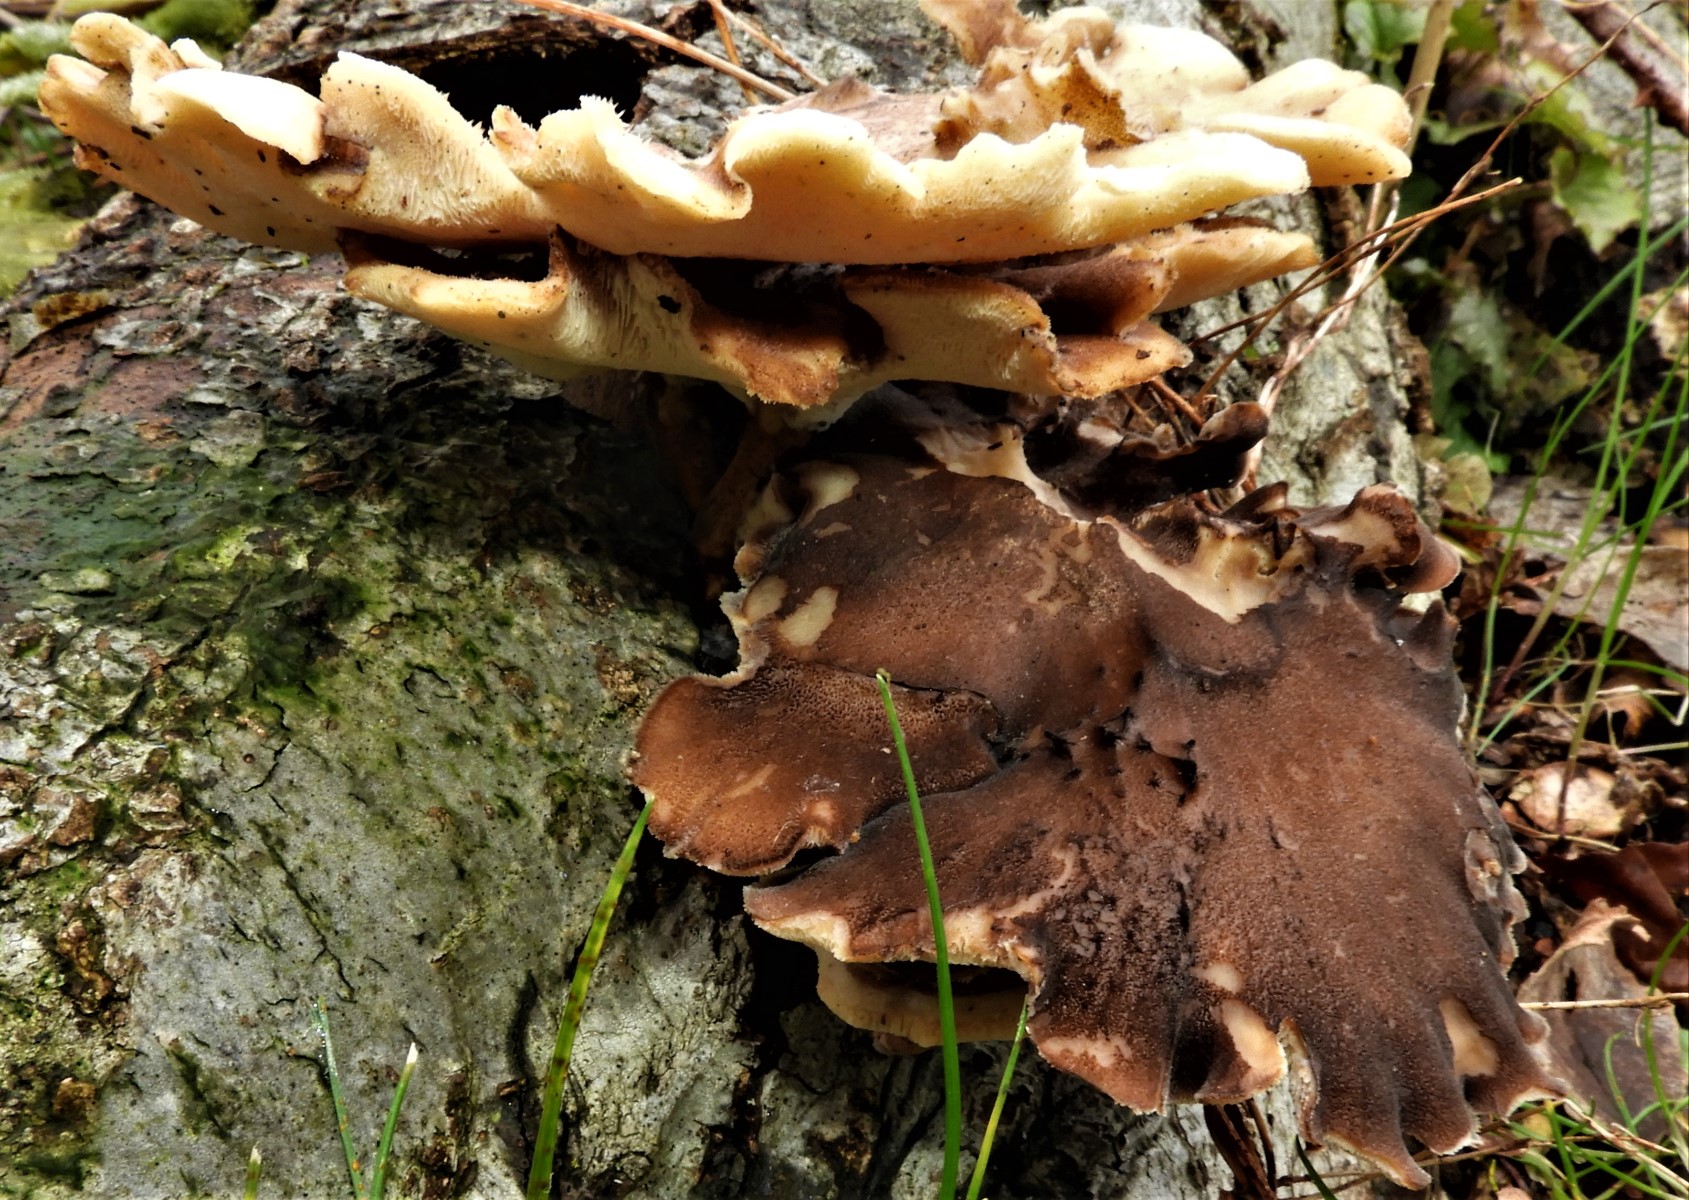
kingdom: Fungi
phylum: Basidiomycota
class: Agaricomycetes
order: Polyporales
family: Polyporaceae
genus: Lentinus
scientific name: Lentinus brumalis
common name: vinter-stilkporesvamp
